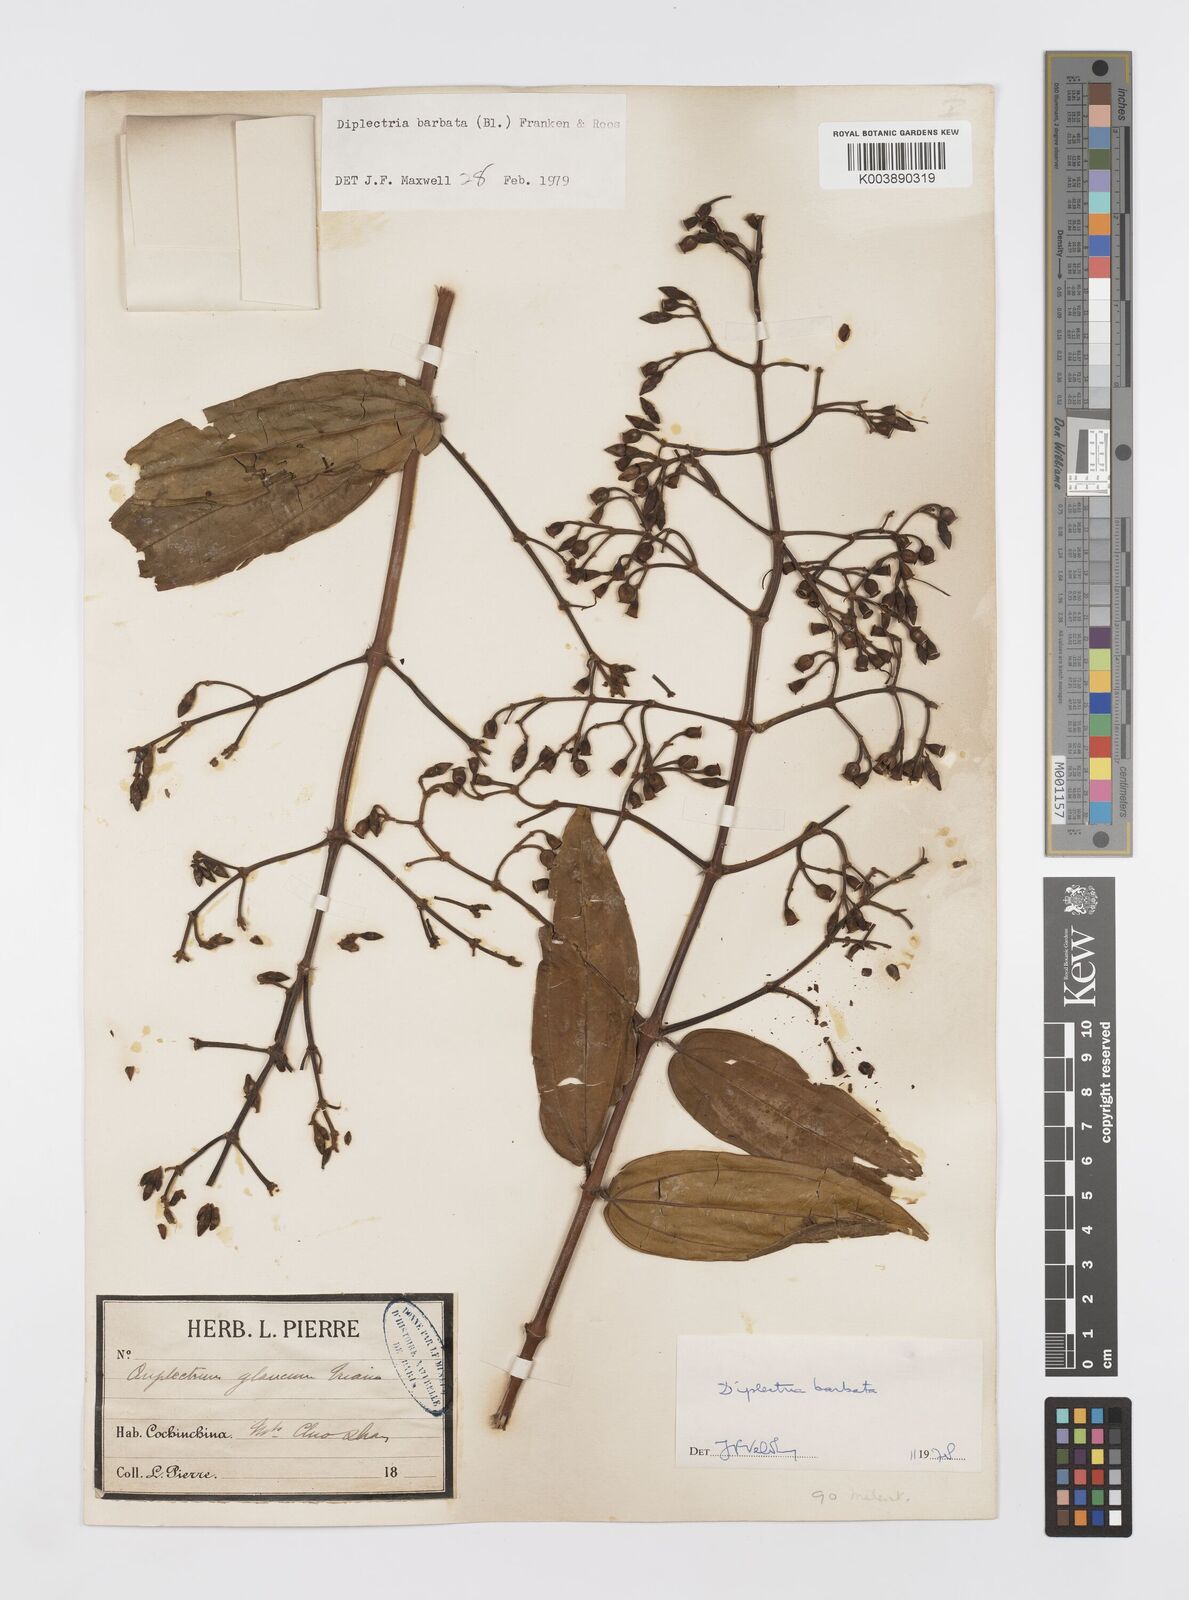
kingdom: Plantae
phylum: Tracheophyta
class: Magnoliopsida
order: Myrtales
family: Melastomataceae
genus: Diplectria
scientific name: Diplectria barbata
